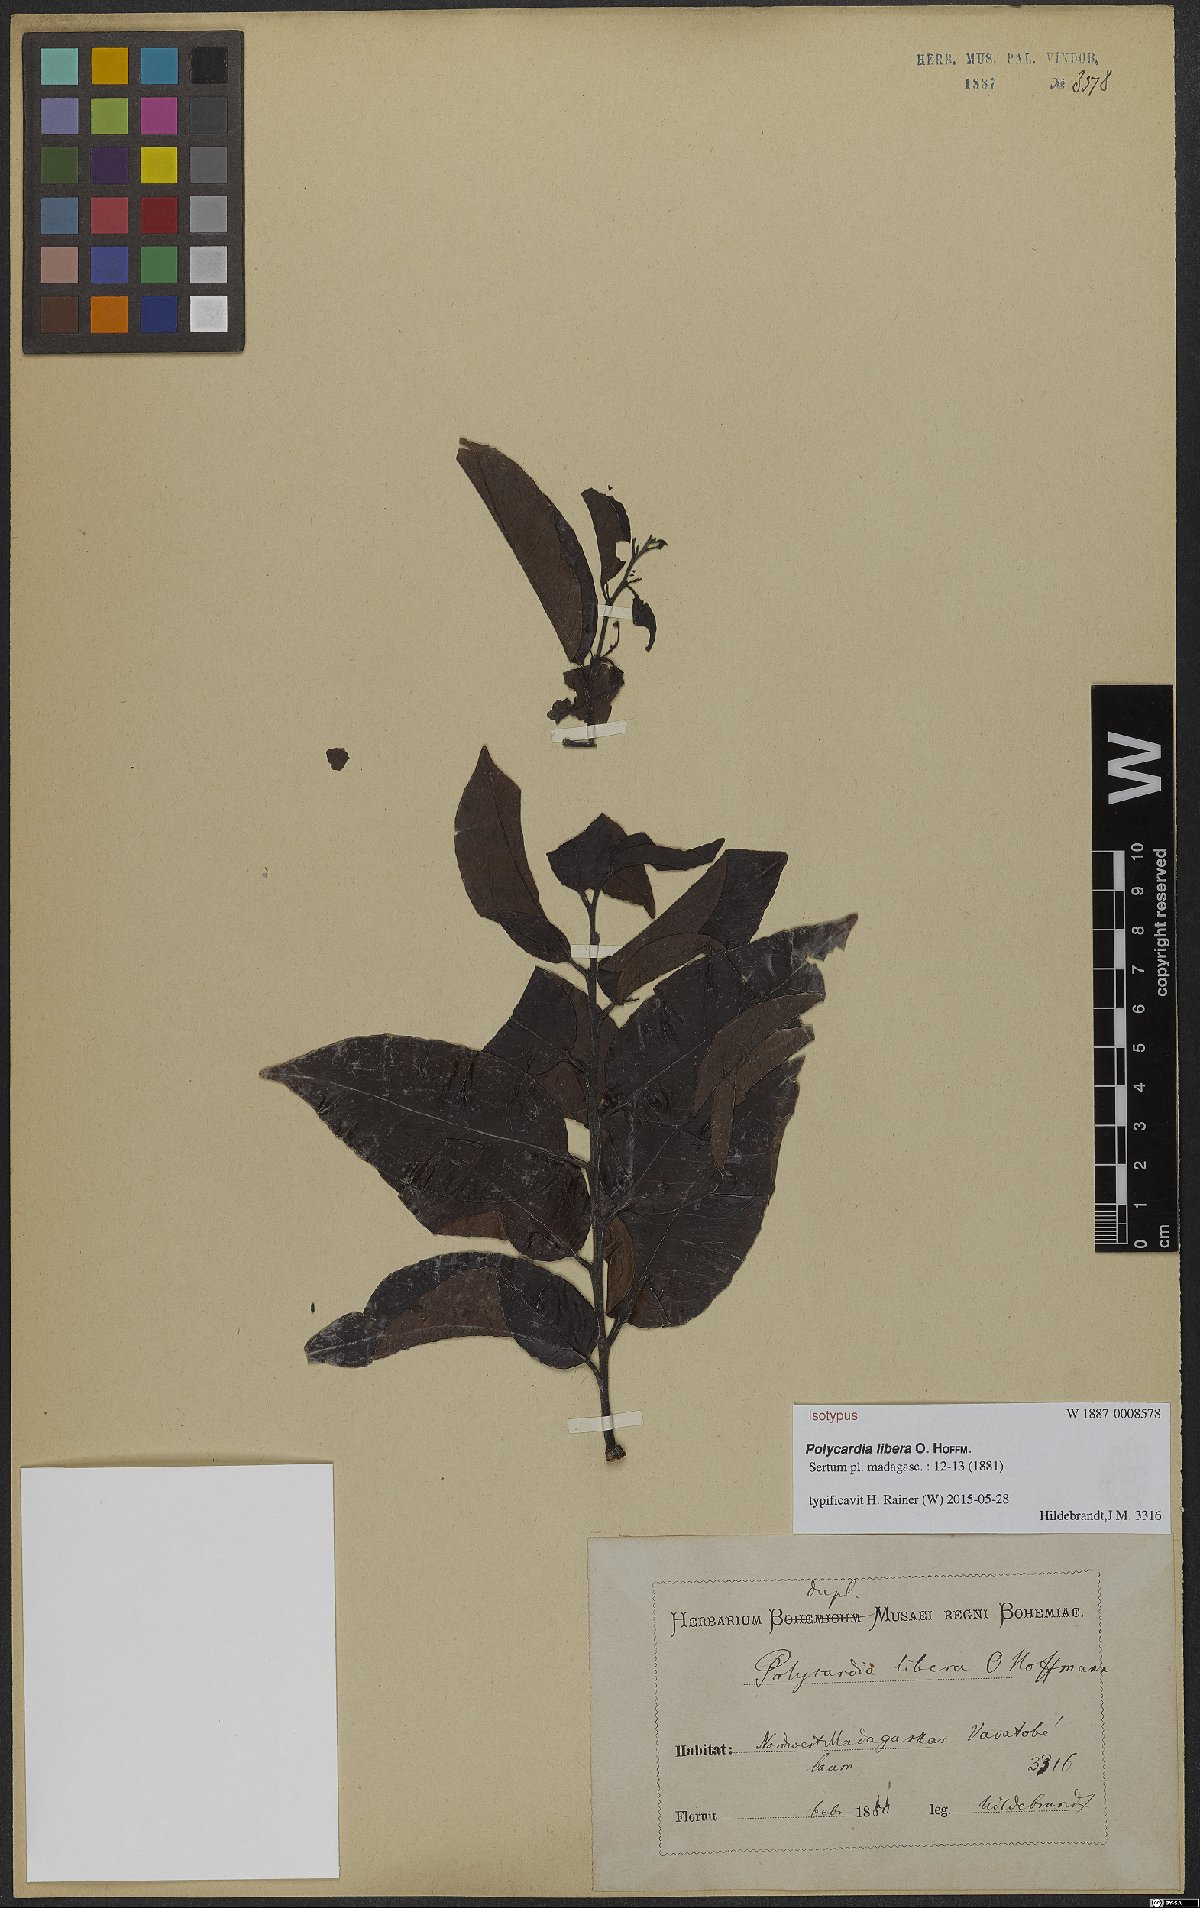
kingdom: Plantae
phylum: Tracheophyta
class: Magnoliopsida
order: Celastrales
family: Celastraceae
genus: Polycardia
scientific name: Polycardia libera
